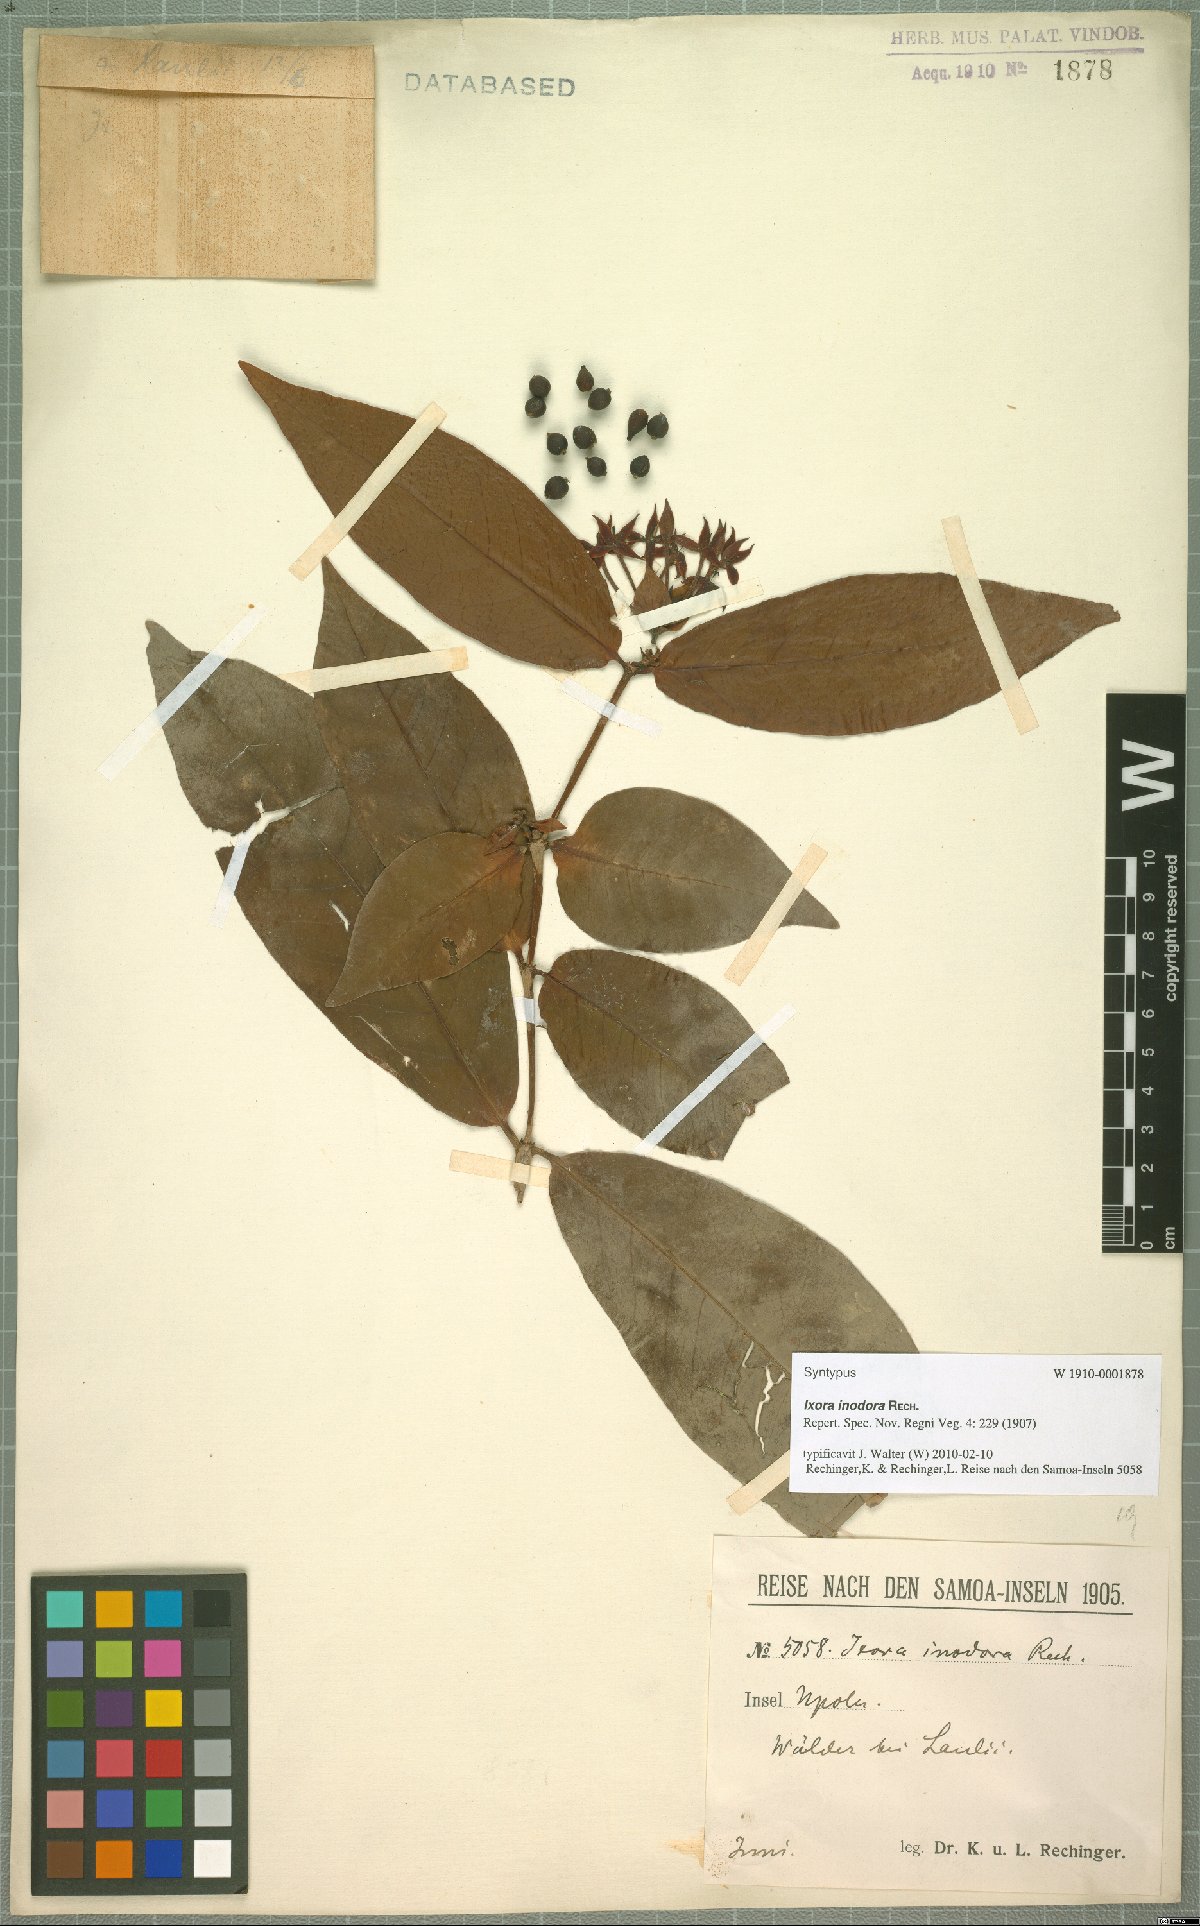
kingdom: Plantae
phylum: Tracheophyta
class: Magnoliopsida
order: Gentianales
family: Rubiaceae
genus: Ixora
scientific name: Ixora inodora
